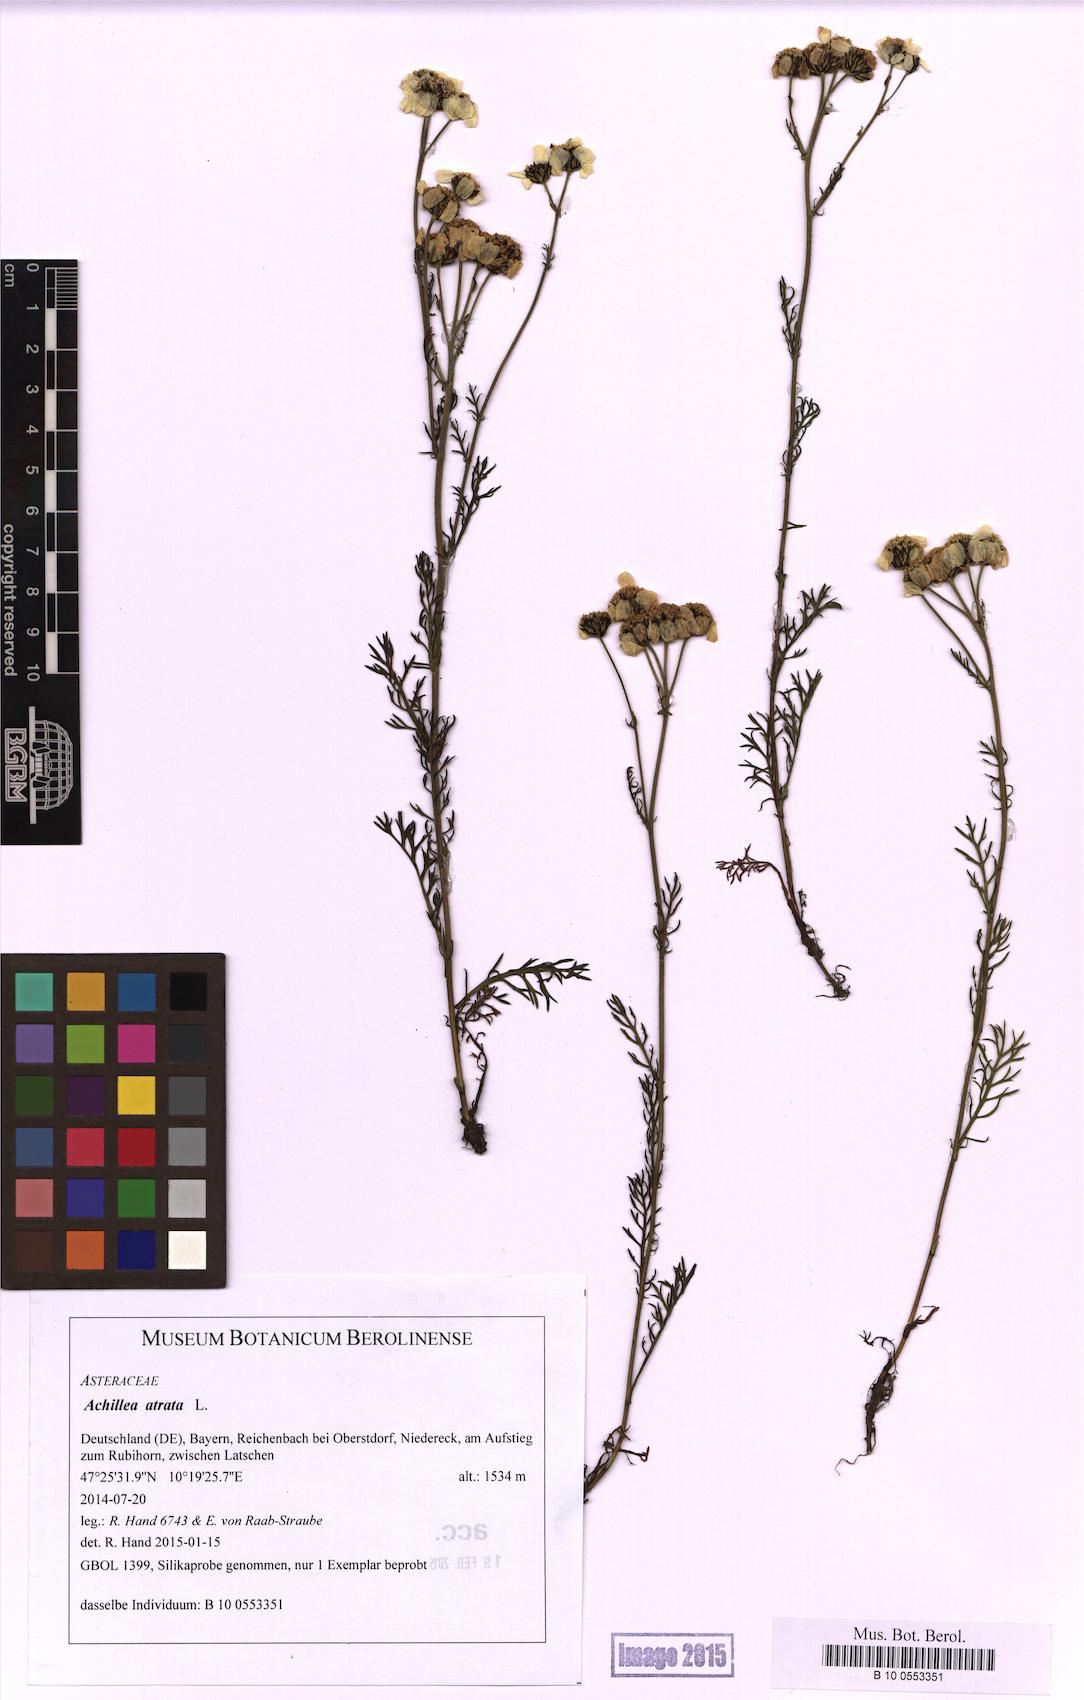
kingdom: Plantae
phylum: Tracheophyta
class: Magnoliopsida
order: Asterales
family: Asteraceae
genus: Achillea
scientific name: Achillea atrata
